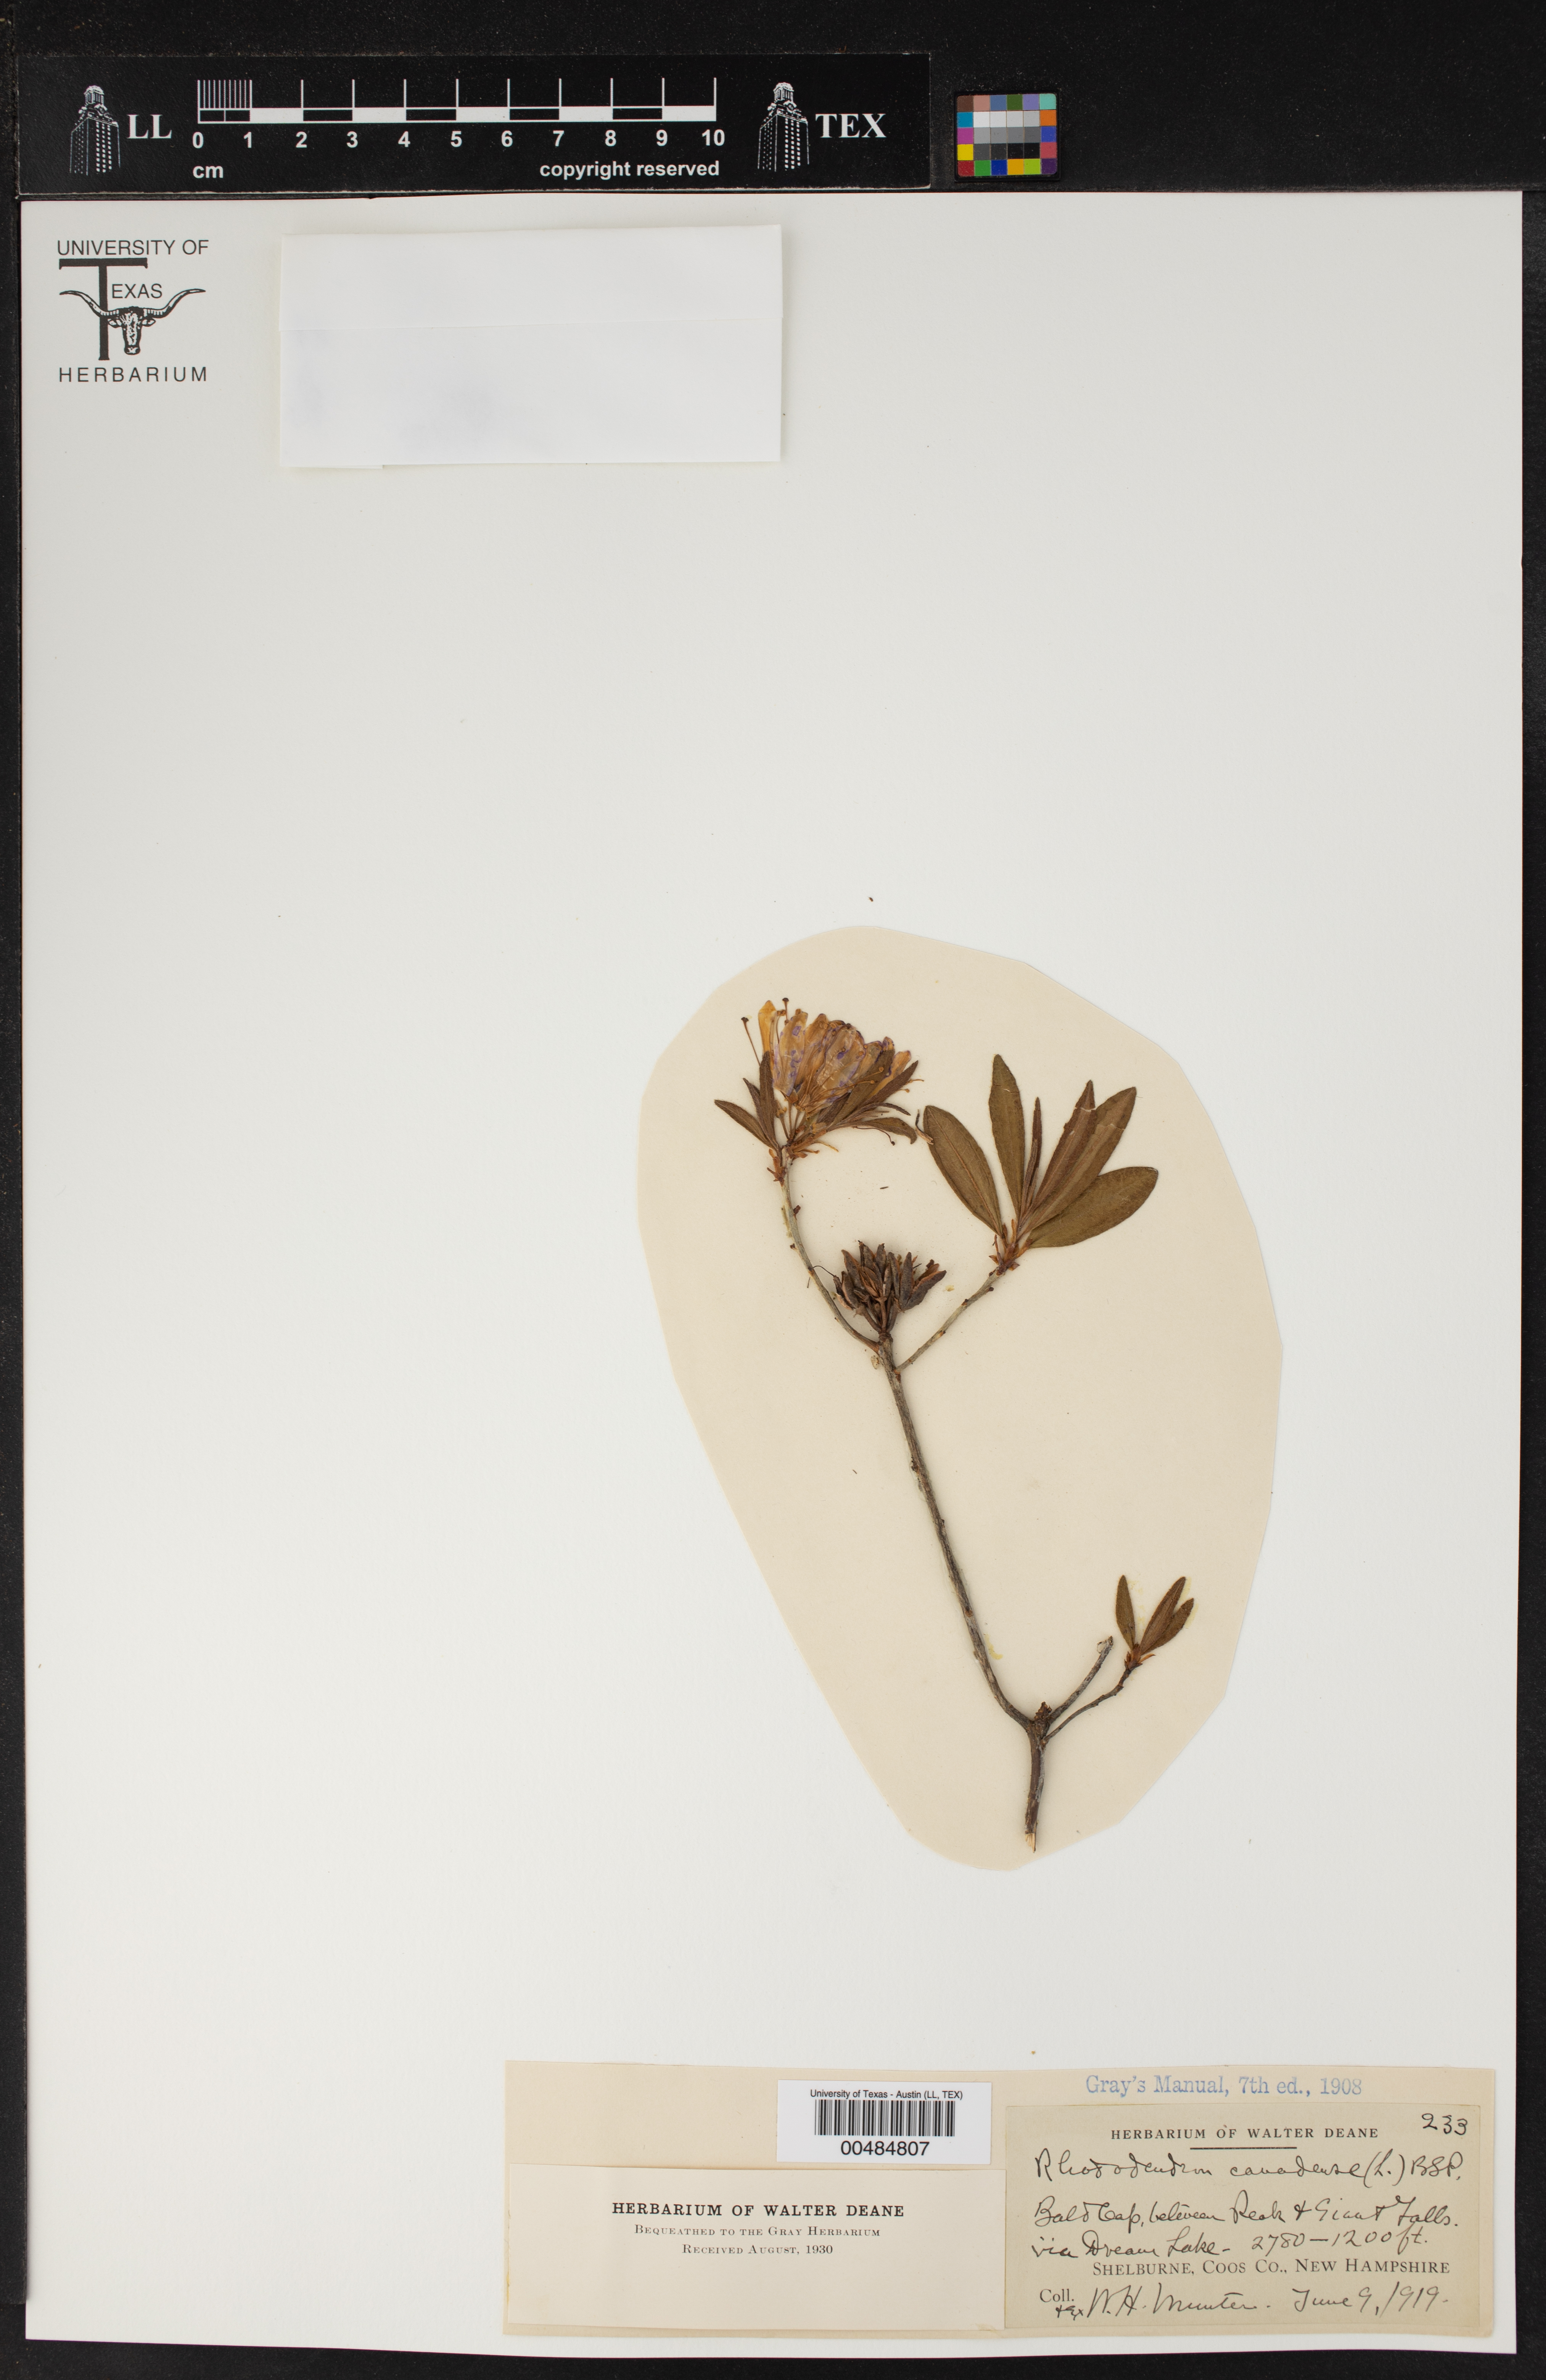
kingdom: Plantae
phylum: Tracheophyta
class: Magnoliopsida
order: Ericales
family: Ericaceae
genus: Rhododendron
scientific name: Rhododendron canadense
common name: Rhodora
